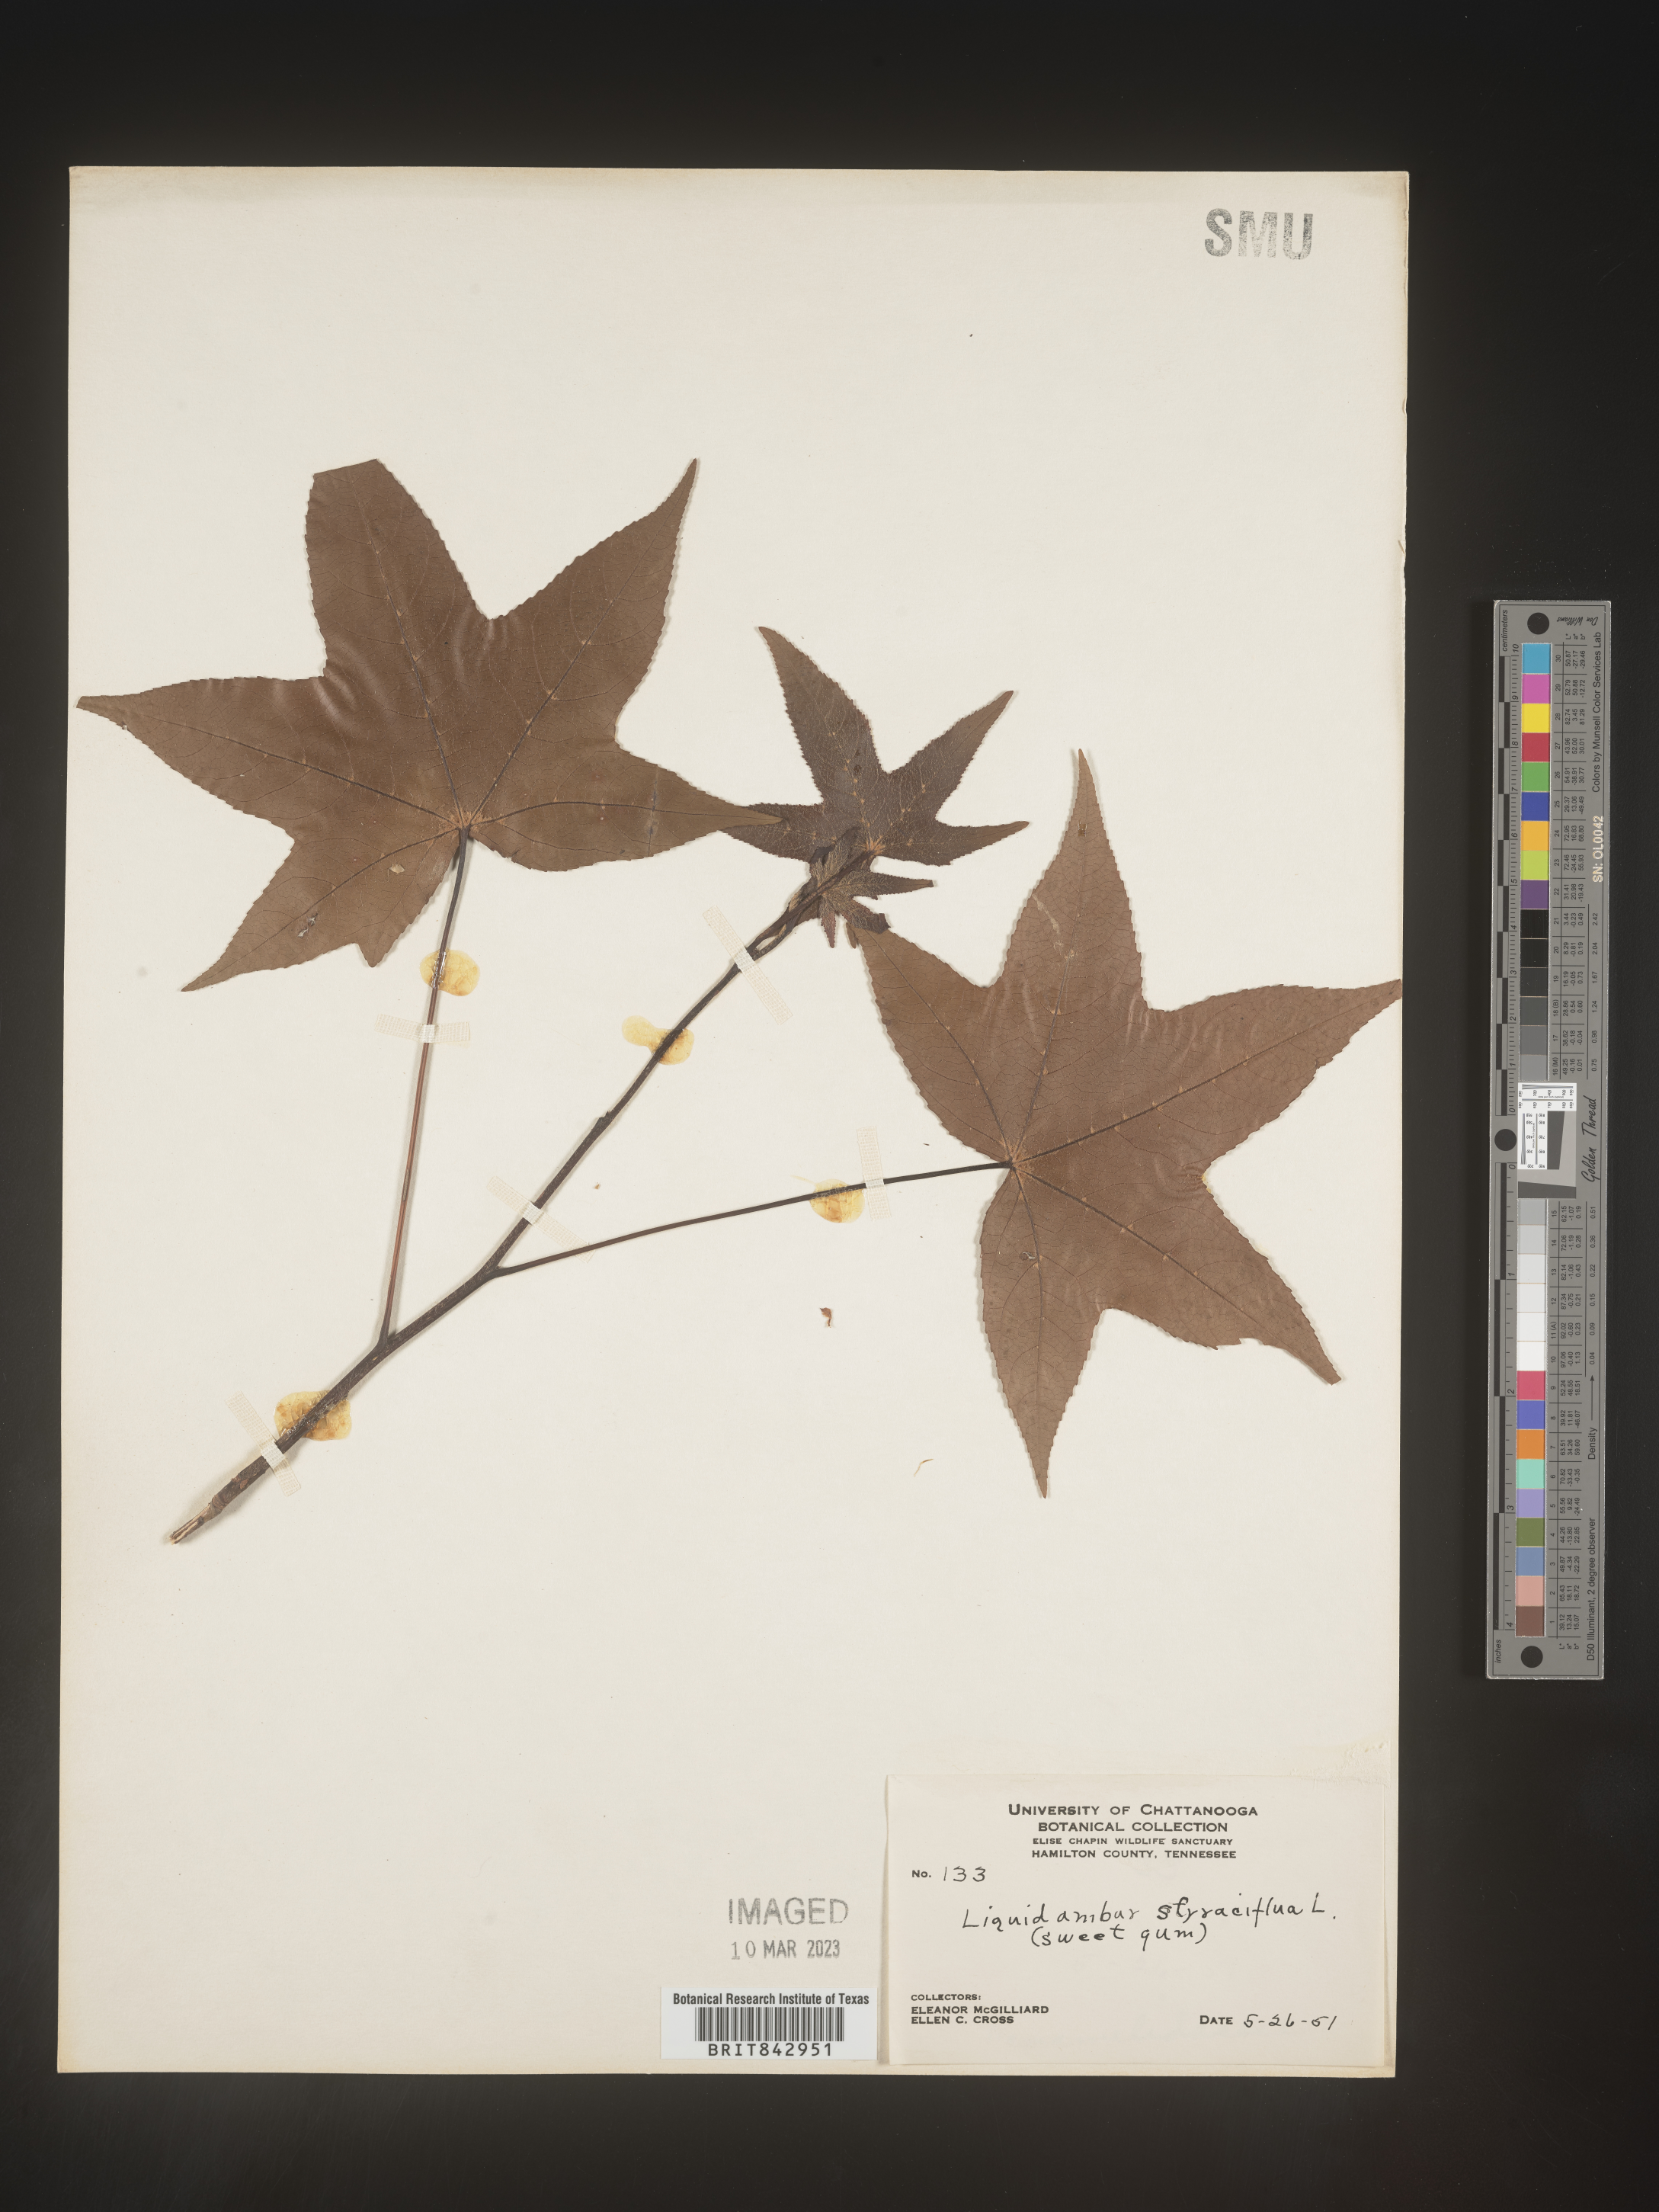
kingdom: Plantae
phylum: Tracheophyta
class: Magnoliopsida
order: Saxifragales
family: Altingiaceae
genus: Liquidambar
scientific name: Liquidambar styraciflua
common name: Sweet gum
